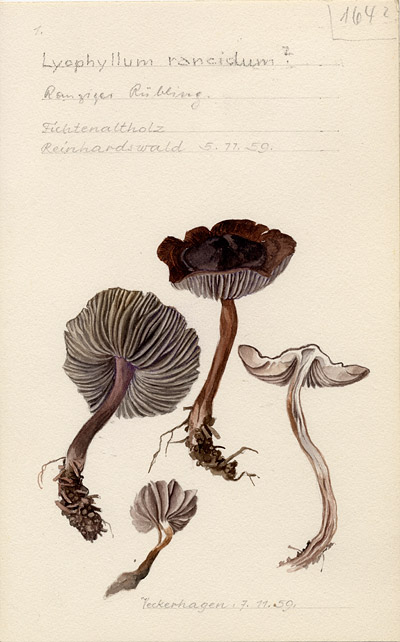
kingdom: Fungi
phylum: Basidiomycota
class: Agaricomycetes
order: Agaricales
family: Lyophyllaceae
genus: Tephrocybe
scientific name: Tephrocybe rancida
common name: Rancid greyling
